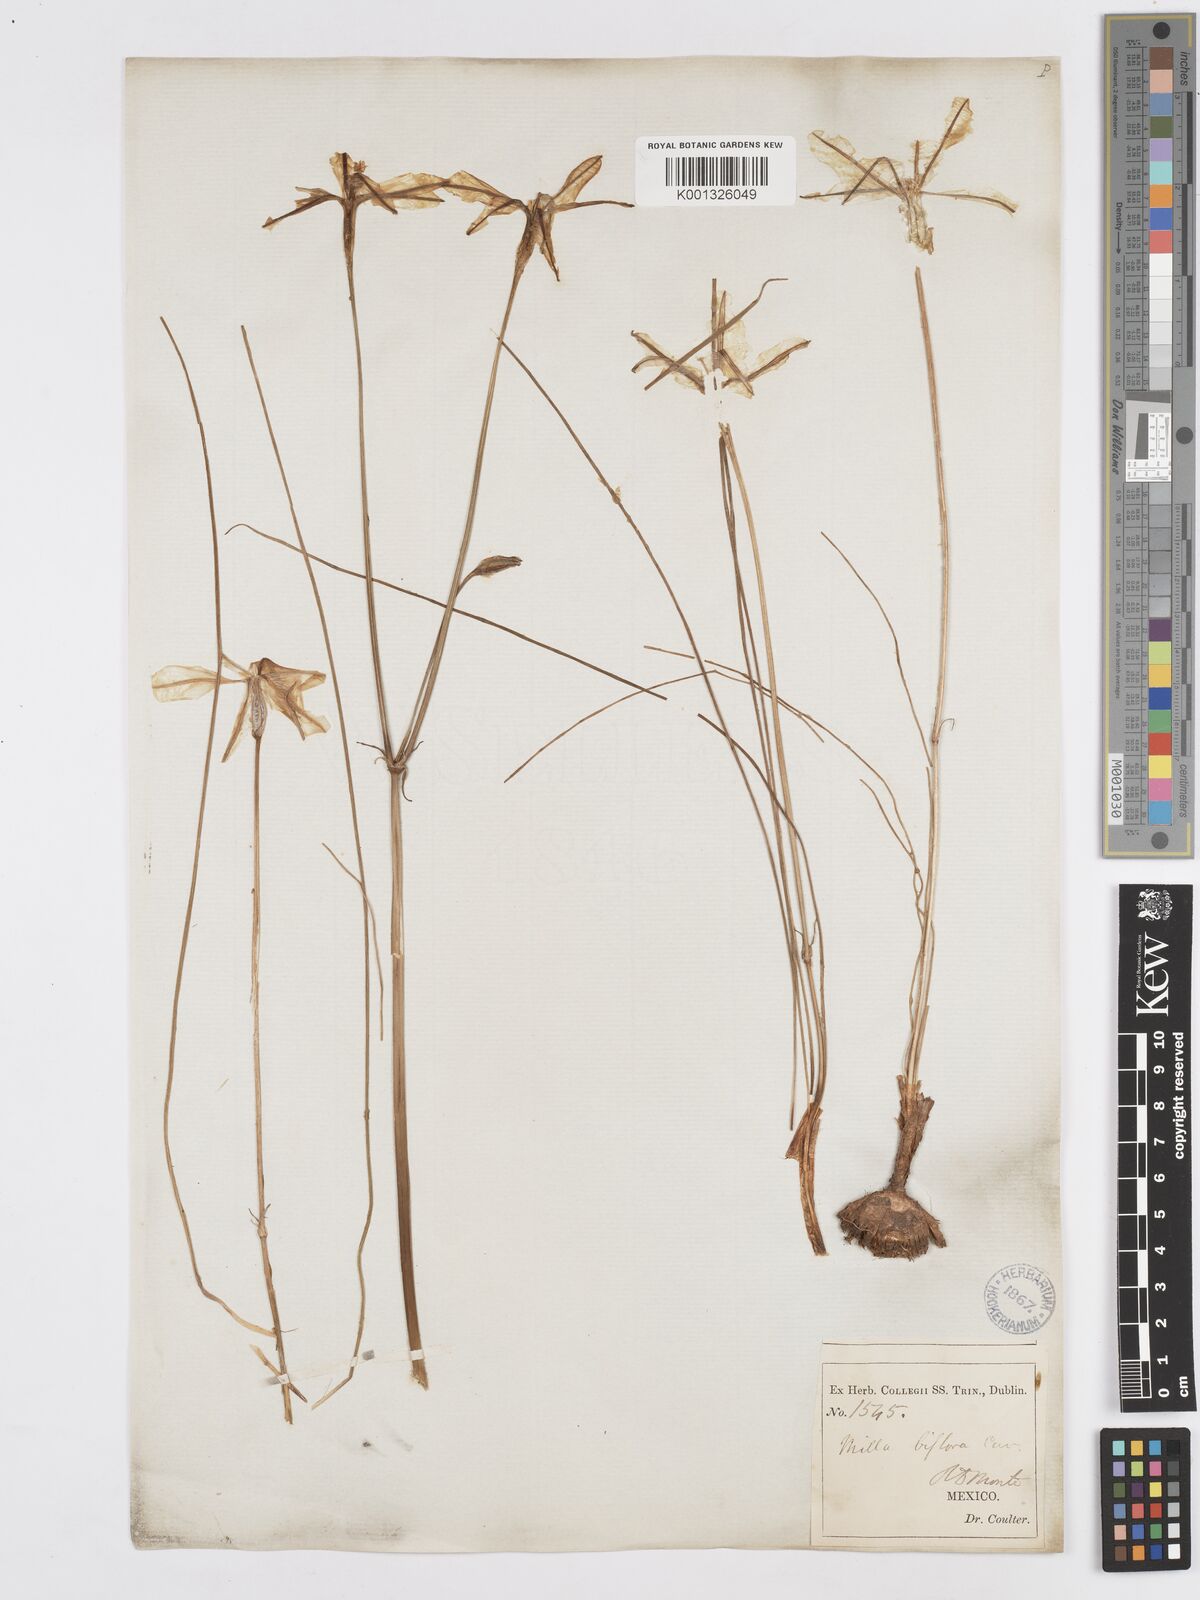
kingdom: Plantae
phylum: Tracheophyta
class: Liliopsida
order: Asparagales
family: Asparagaceae
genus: Milla
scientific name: Milla biflora
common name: Mexican-star
